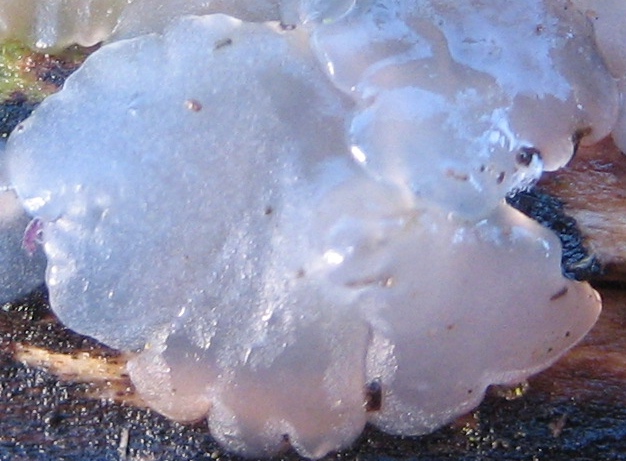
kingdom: Fungi
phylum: Basidiomycota
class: Agaricomycetes
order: Auriculariales
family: Hyaloriaceae
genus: Myxarium
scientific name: Myxarium
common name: bævretop
